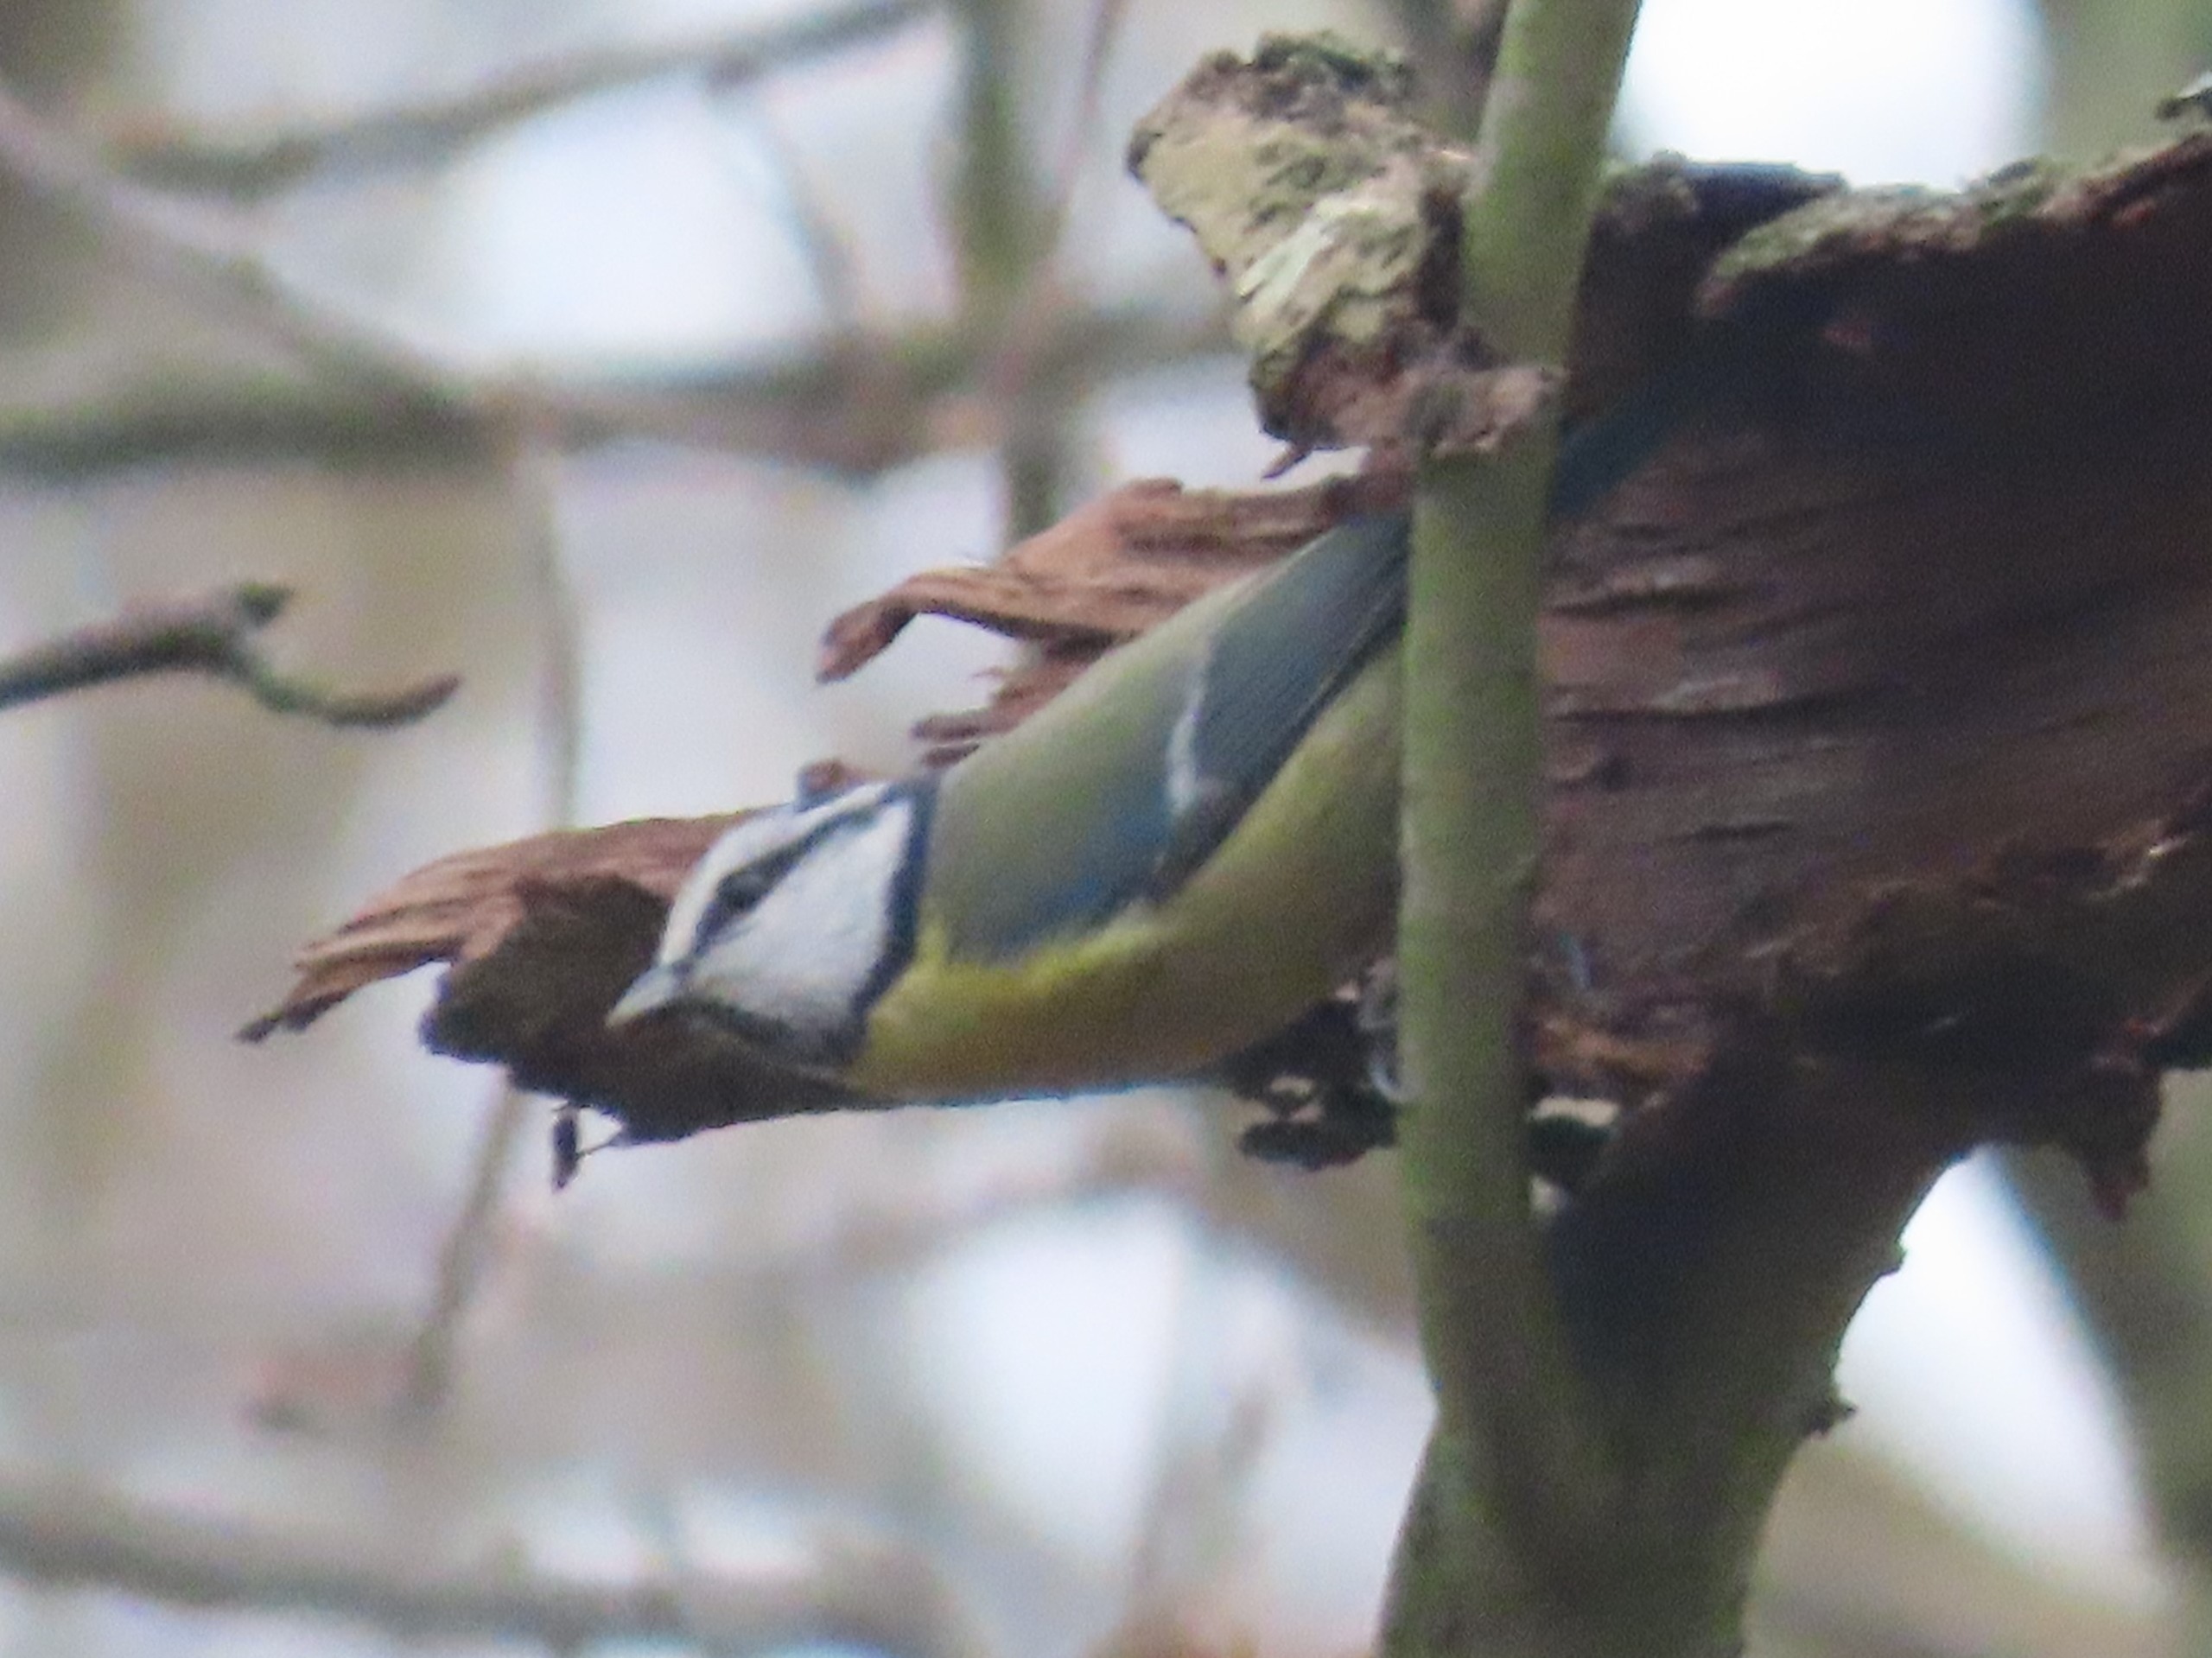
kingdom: Animalia
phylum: Chordata
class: Aves
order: Passeriformes
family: Paridae
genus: Cyanistes
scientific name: Cyanistes caeruleus
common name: Blåmejse
